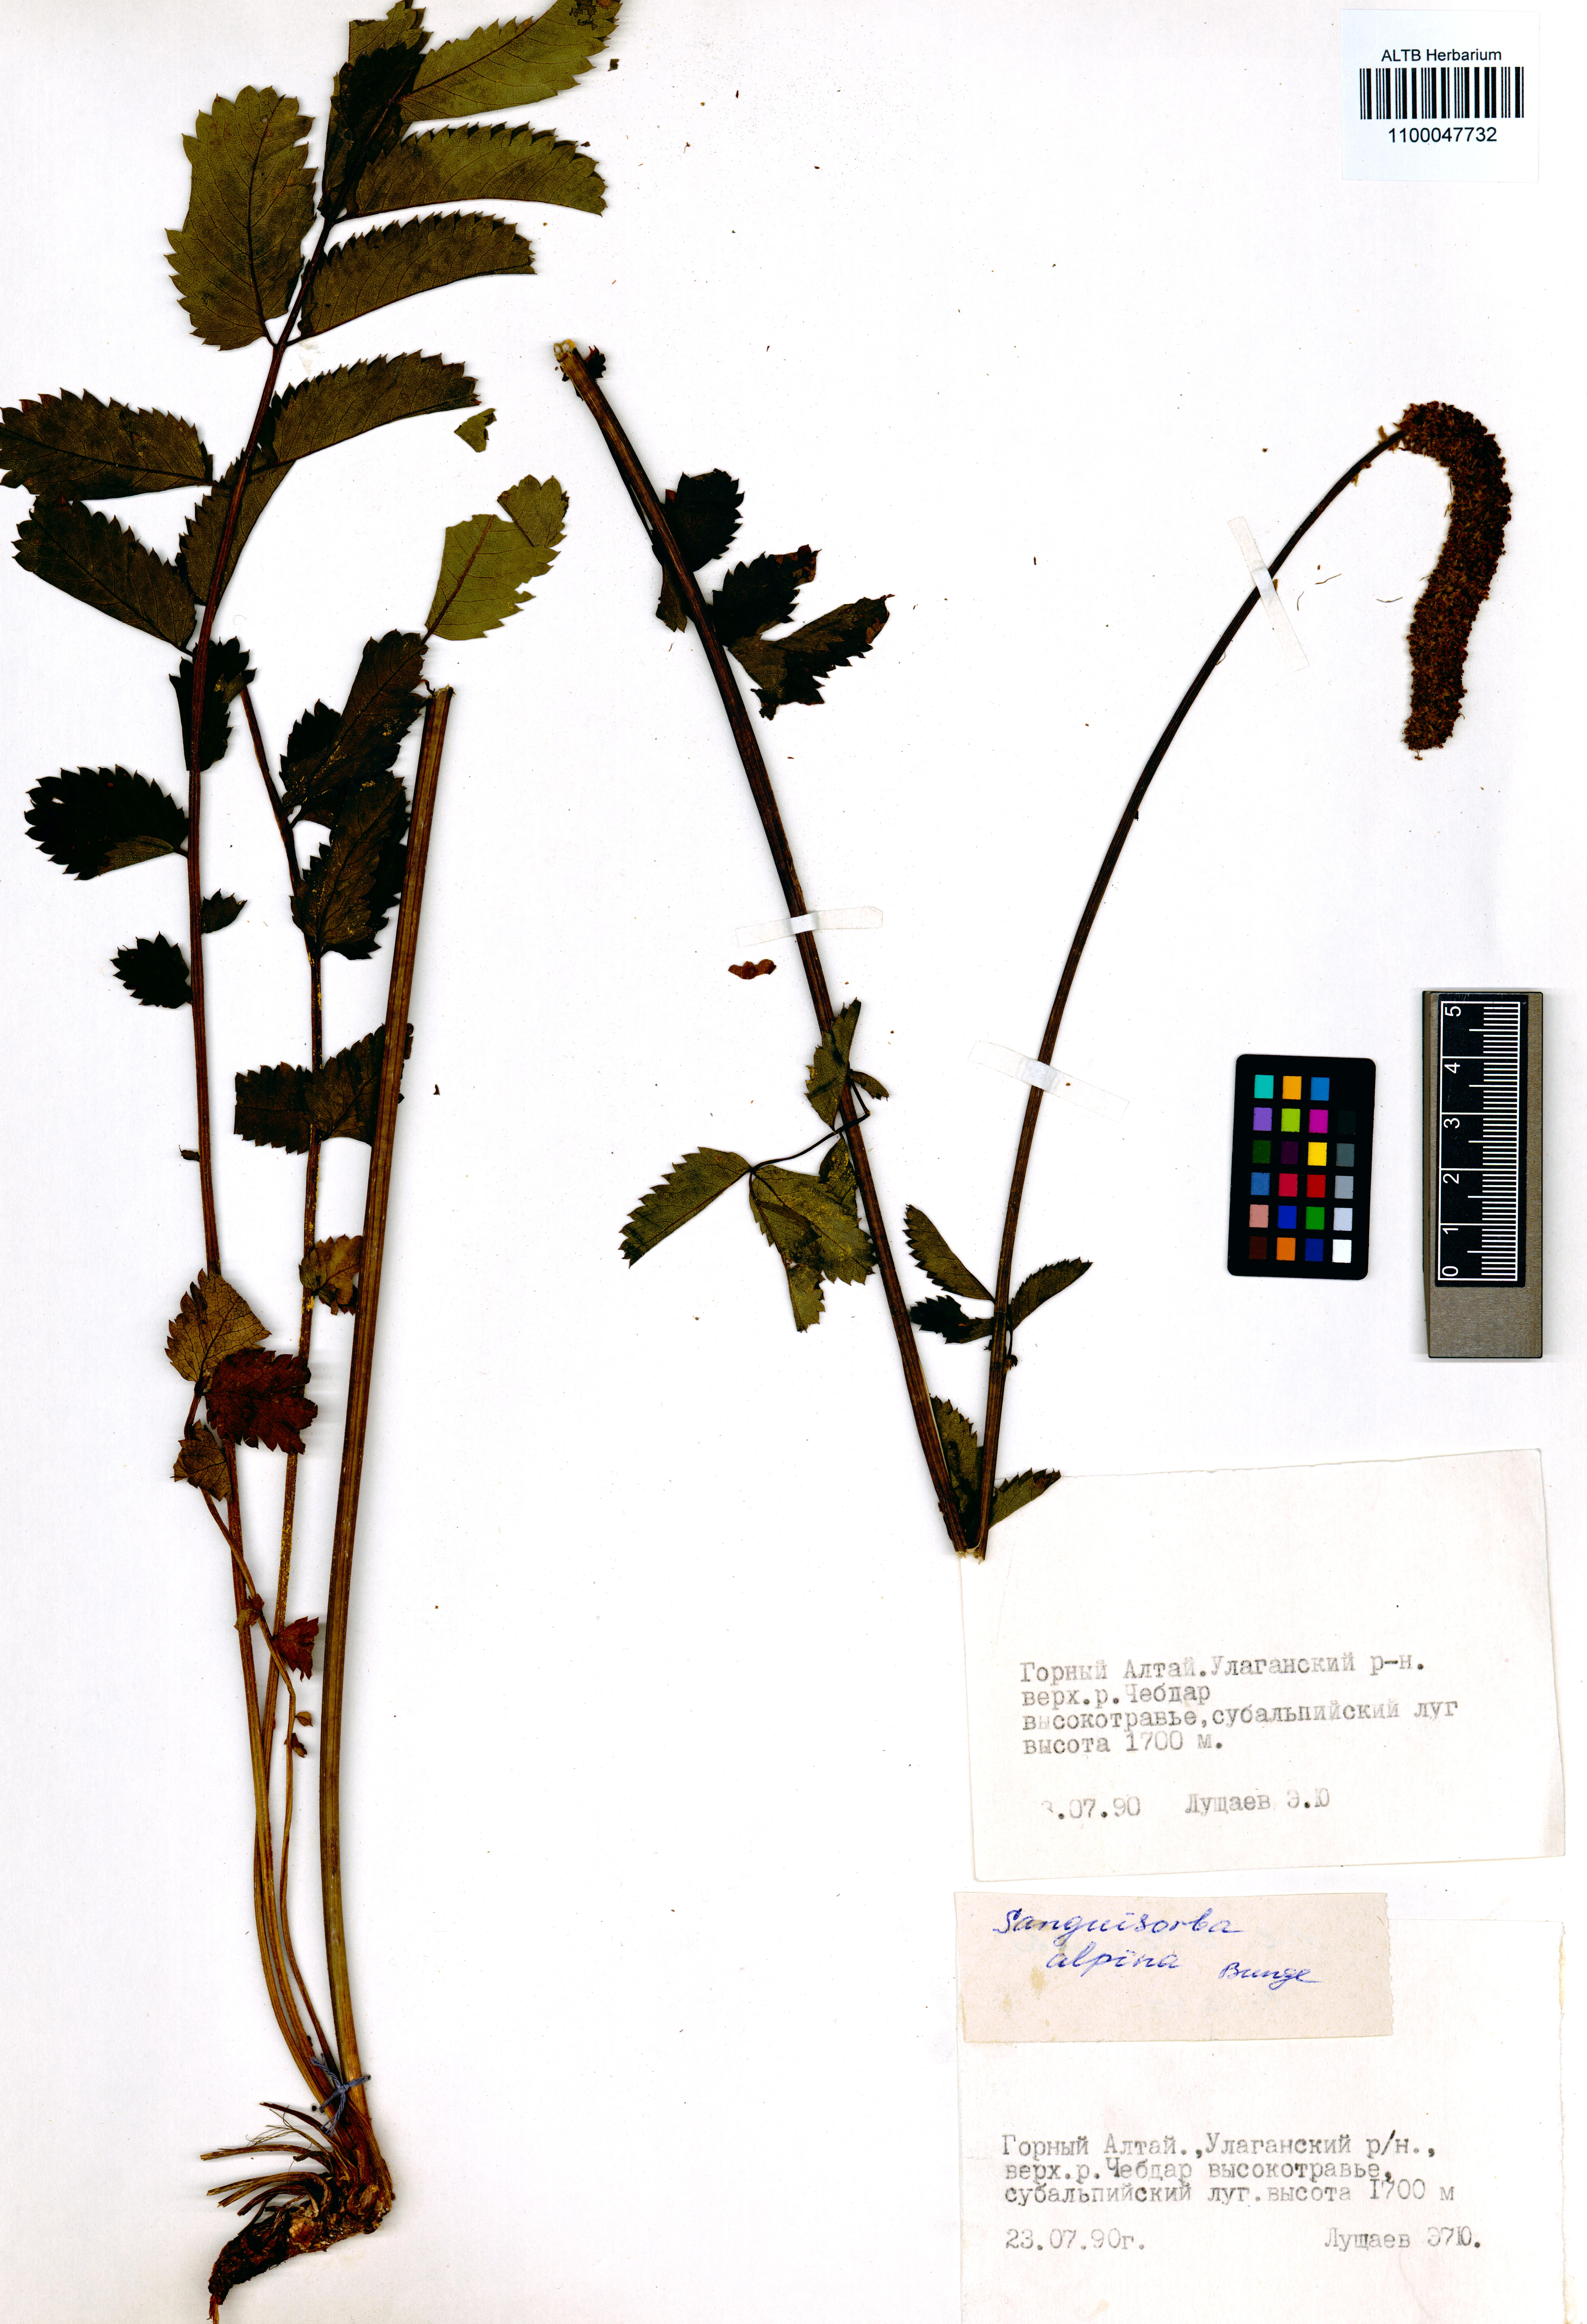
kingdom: Plantae
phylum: Tracheophyta
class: Magnoliopsida
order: Rosales
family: Rosaceae
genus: Sanguisorba
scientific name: Sanguisorba alpina
